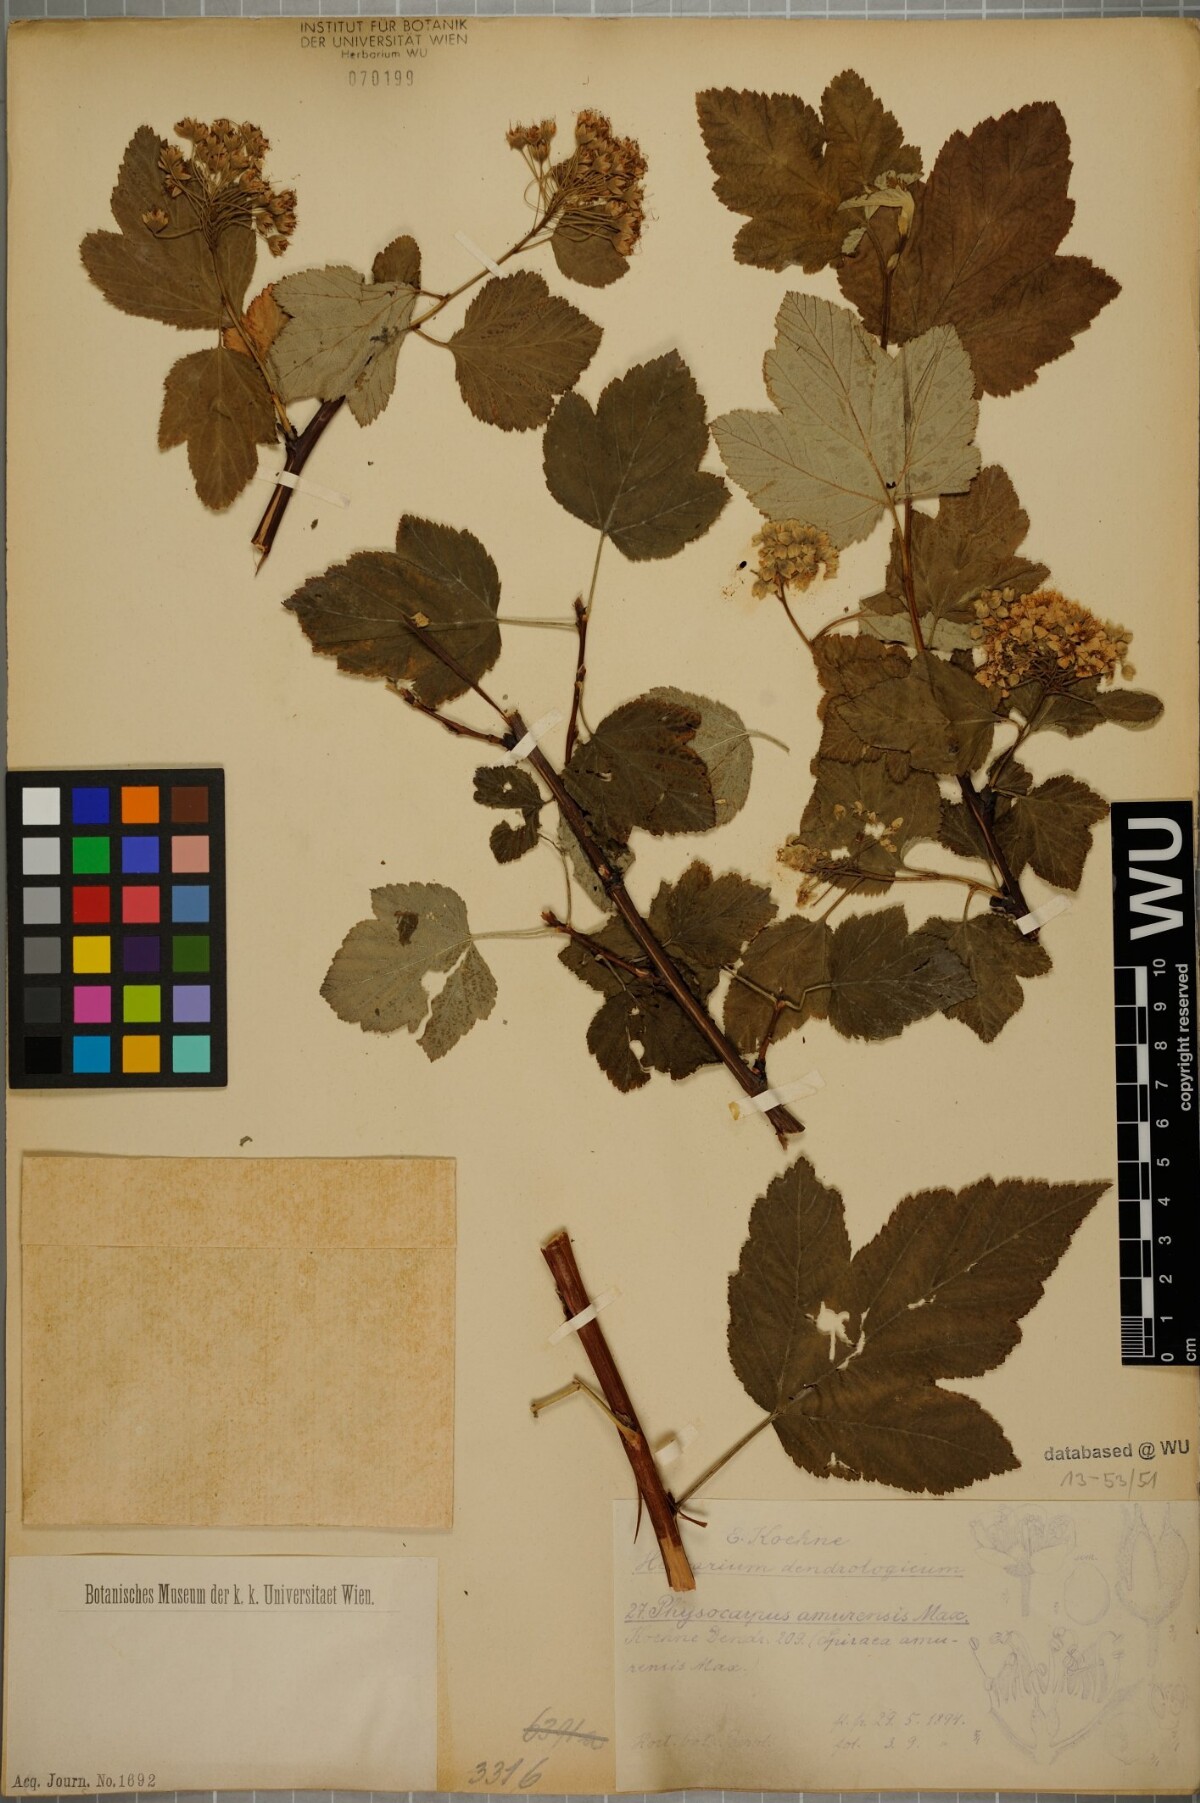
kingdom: Plantae
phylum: Tracheophyta
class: Magnoliopsida
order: Rosales
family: Rosaceae
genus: Physocarpus
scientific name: Physocarpus amurensis
